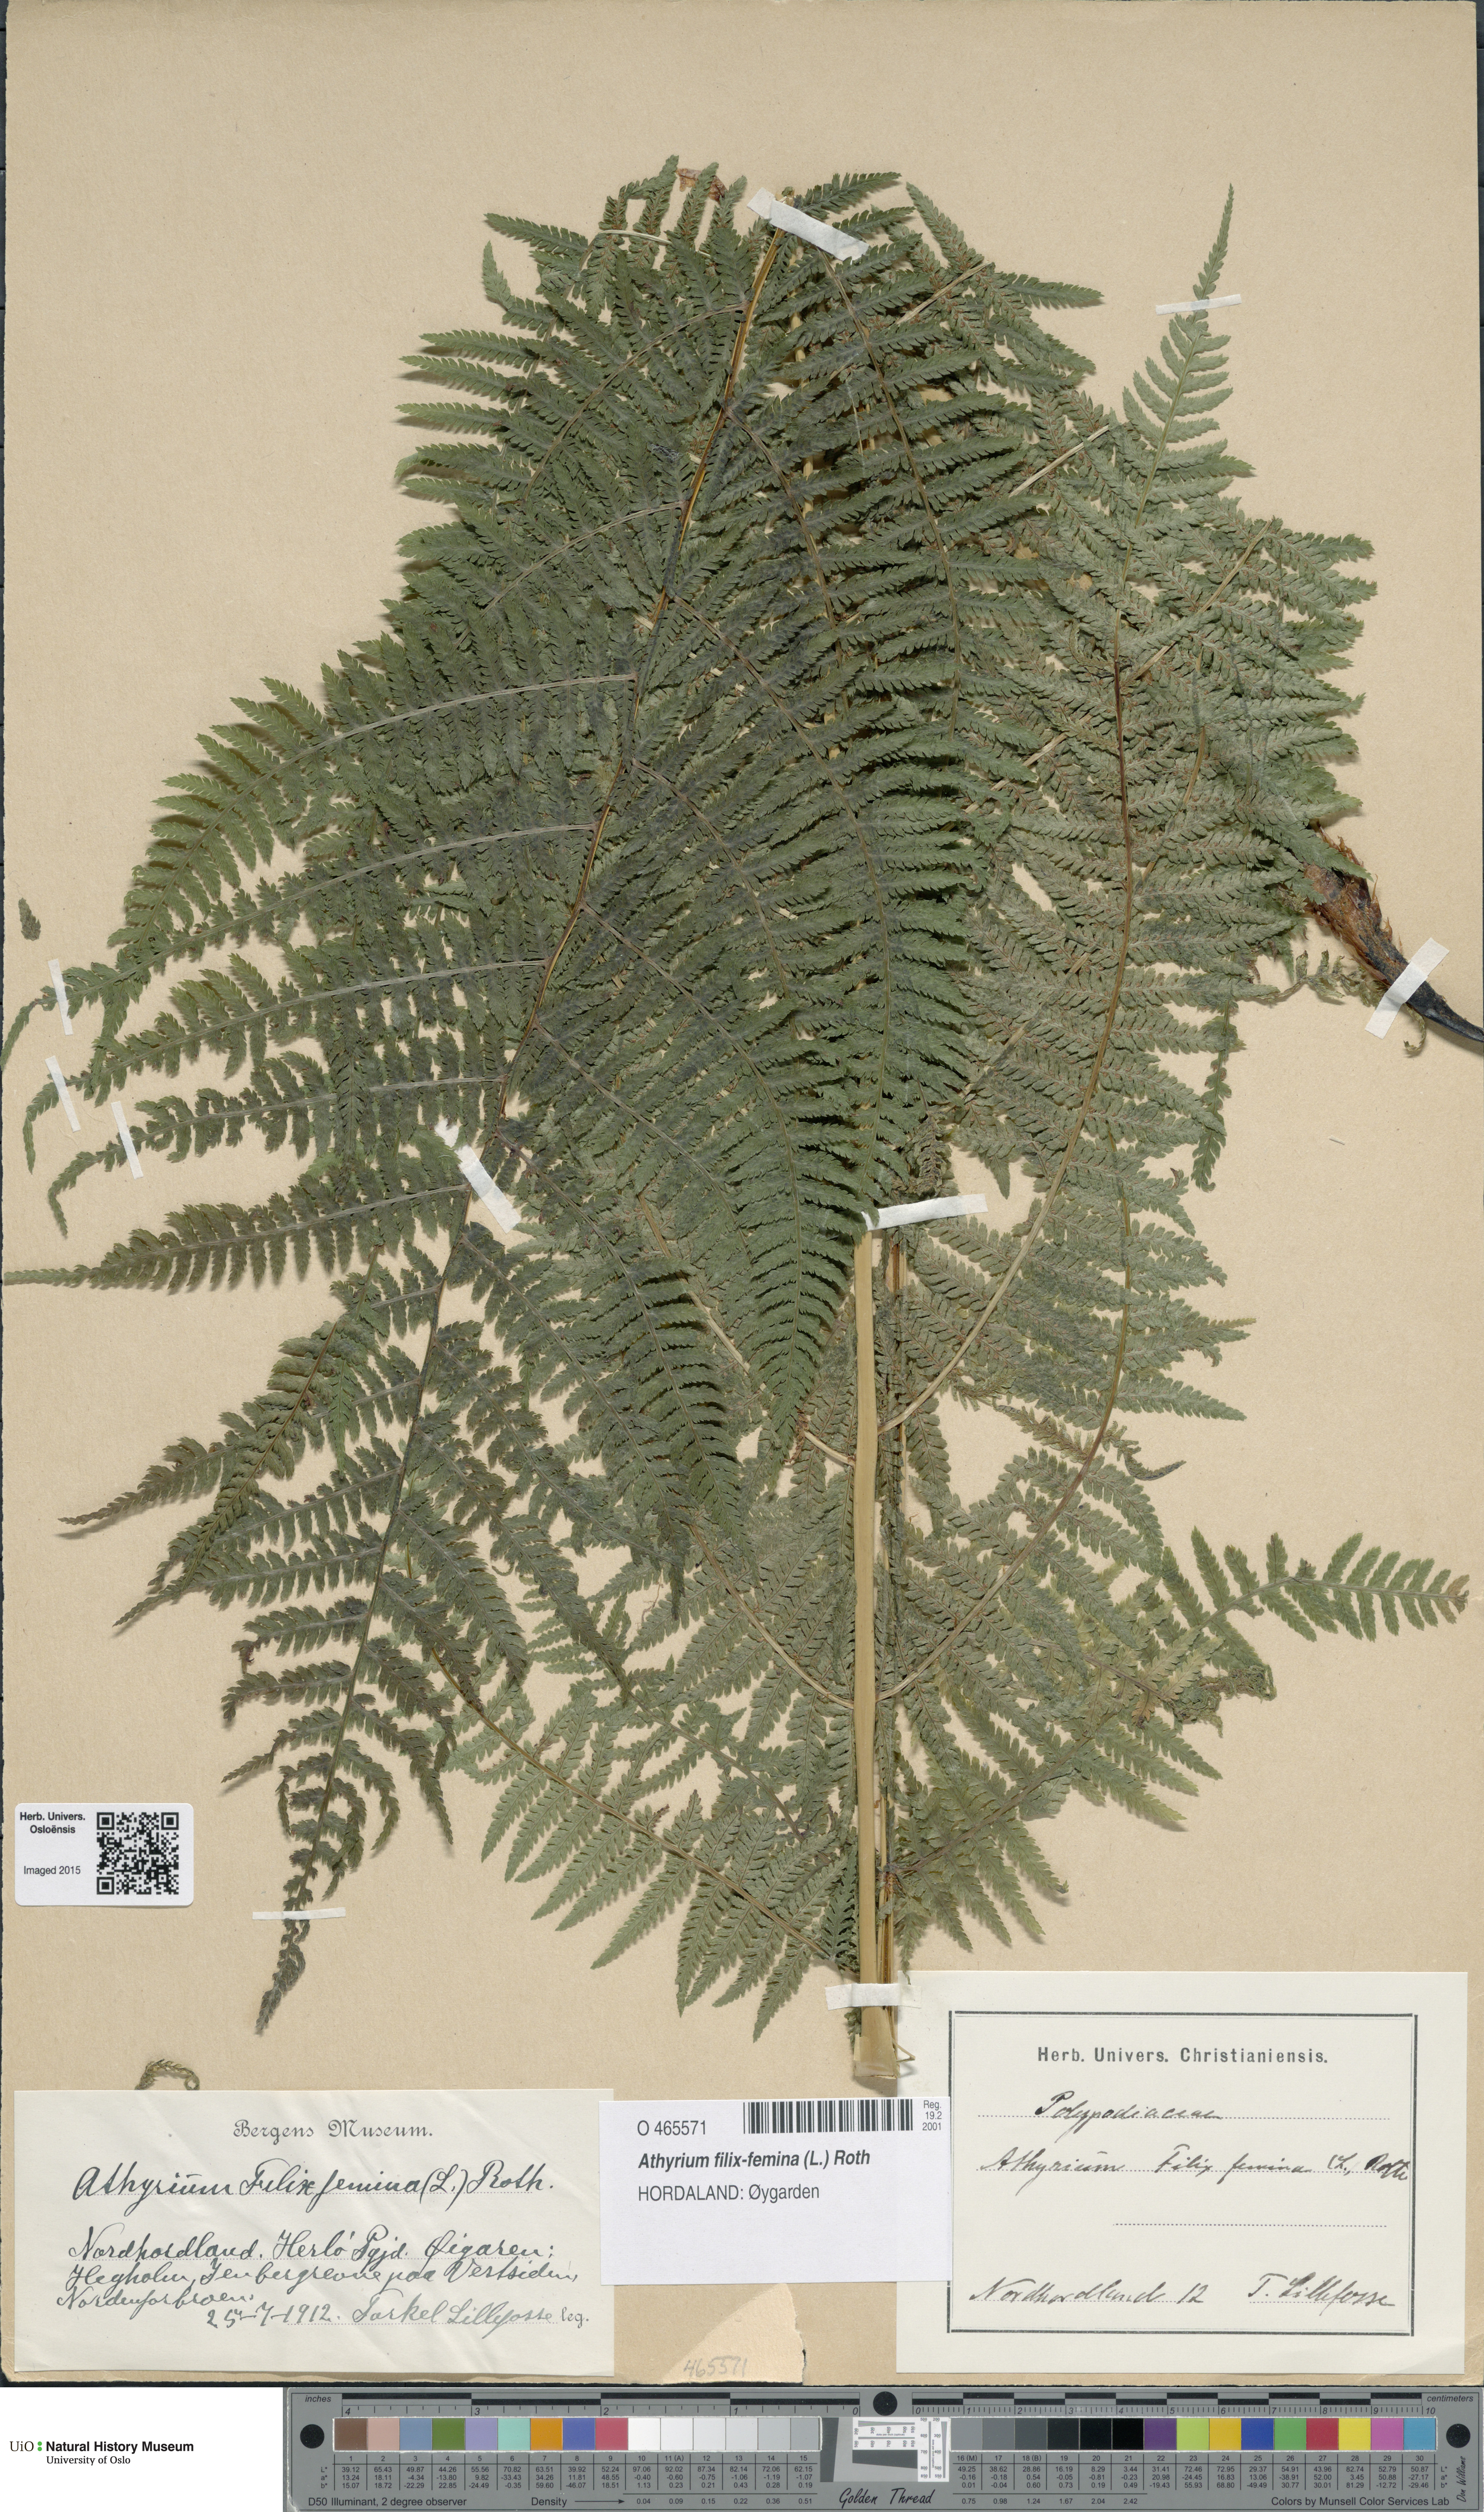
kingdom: Plantae
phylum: Tracheophyta
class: Polypodiopsida
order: Polypodiales
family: Athyriaceae
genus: Athyrium
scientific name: Athyrium filix-femina
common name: Lady fern
